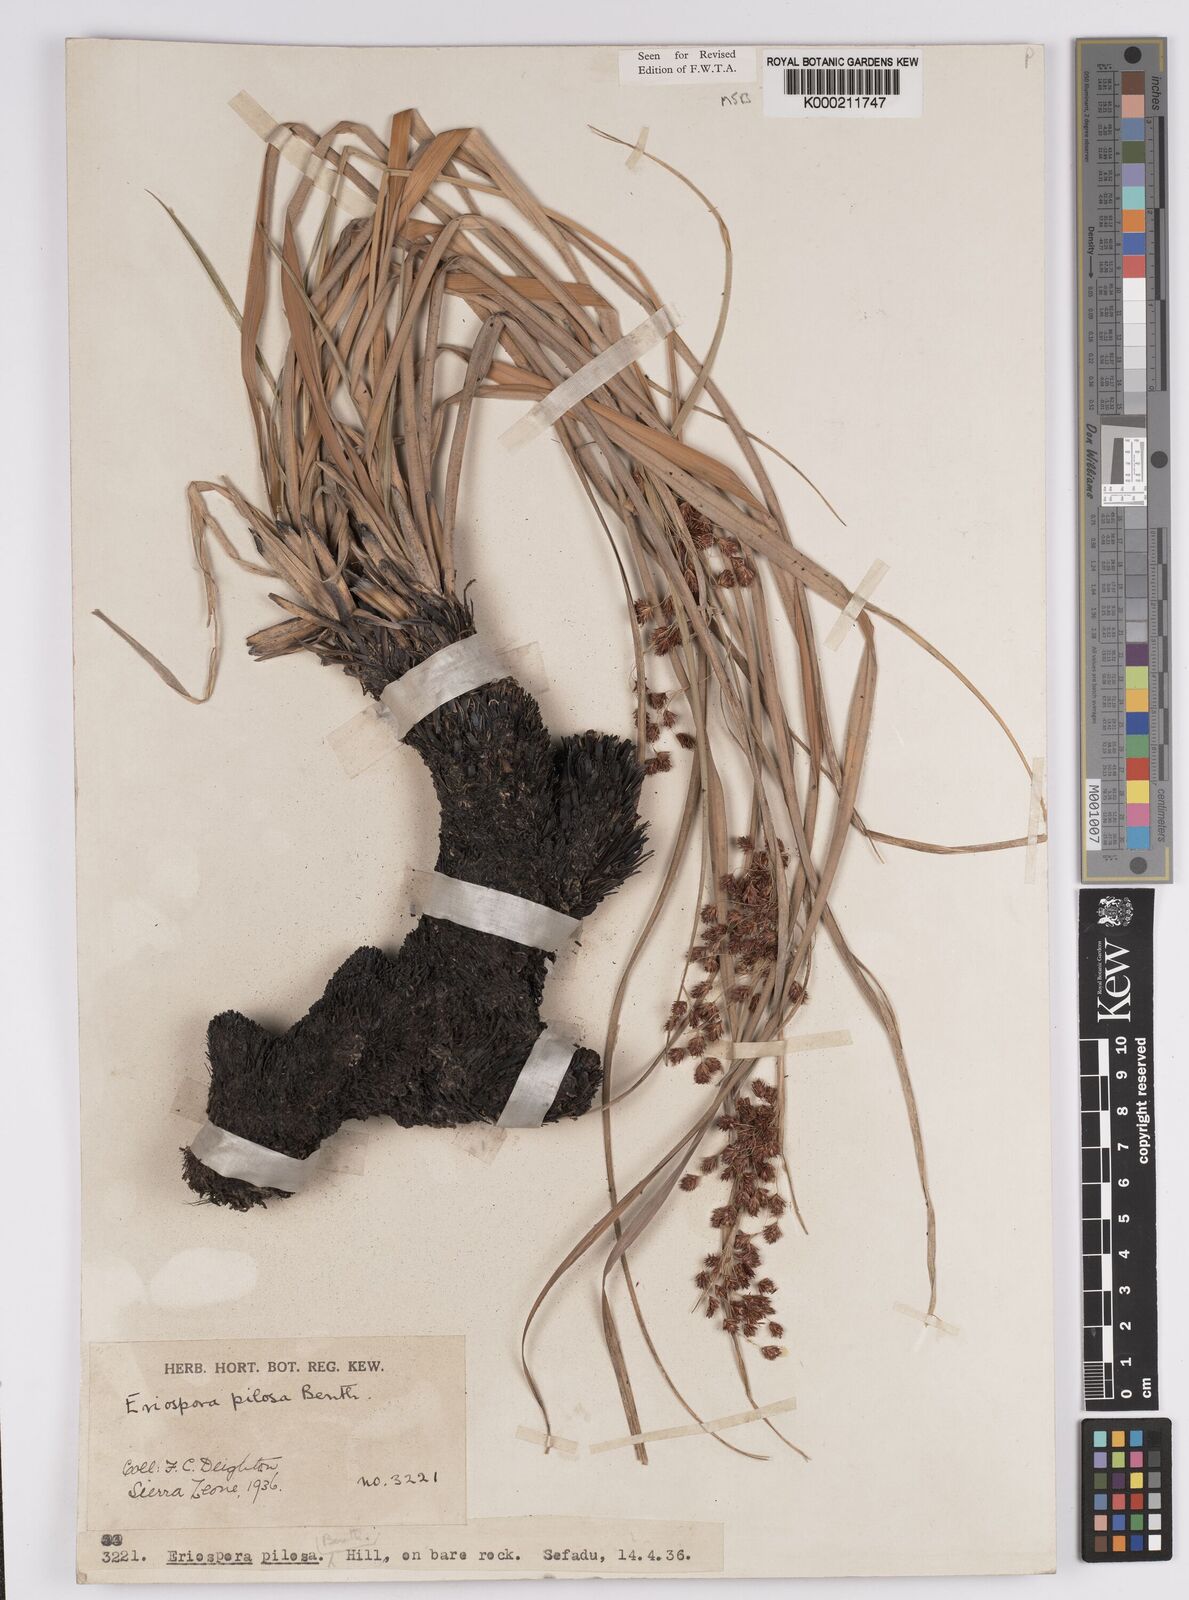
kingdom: Plantae
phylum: Tracheophyta
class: Liliopsida
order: Poales
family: Cyperaceae
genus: Afrotrilepis
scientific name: Afrotrilepis pilosa
